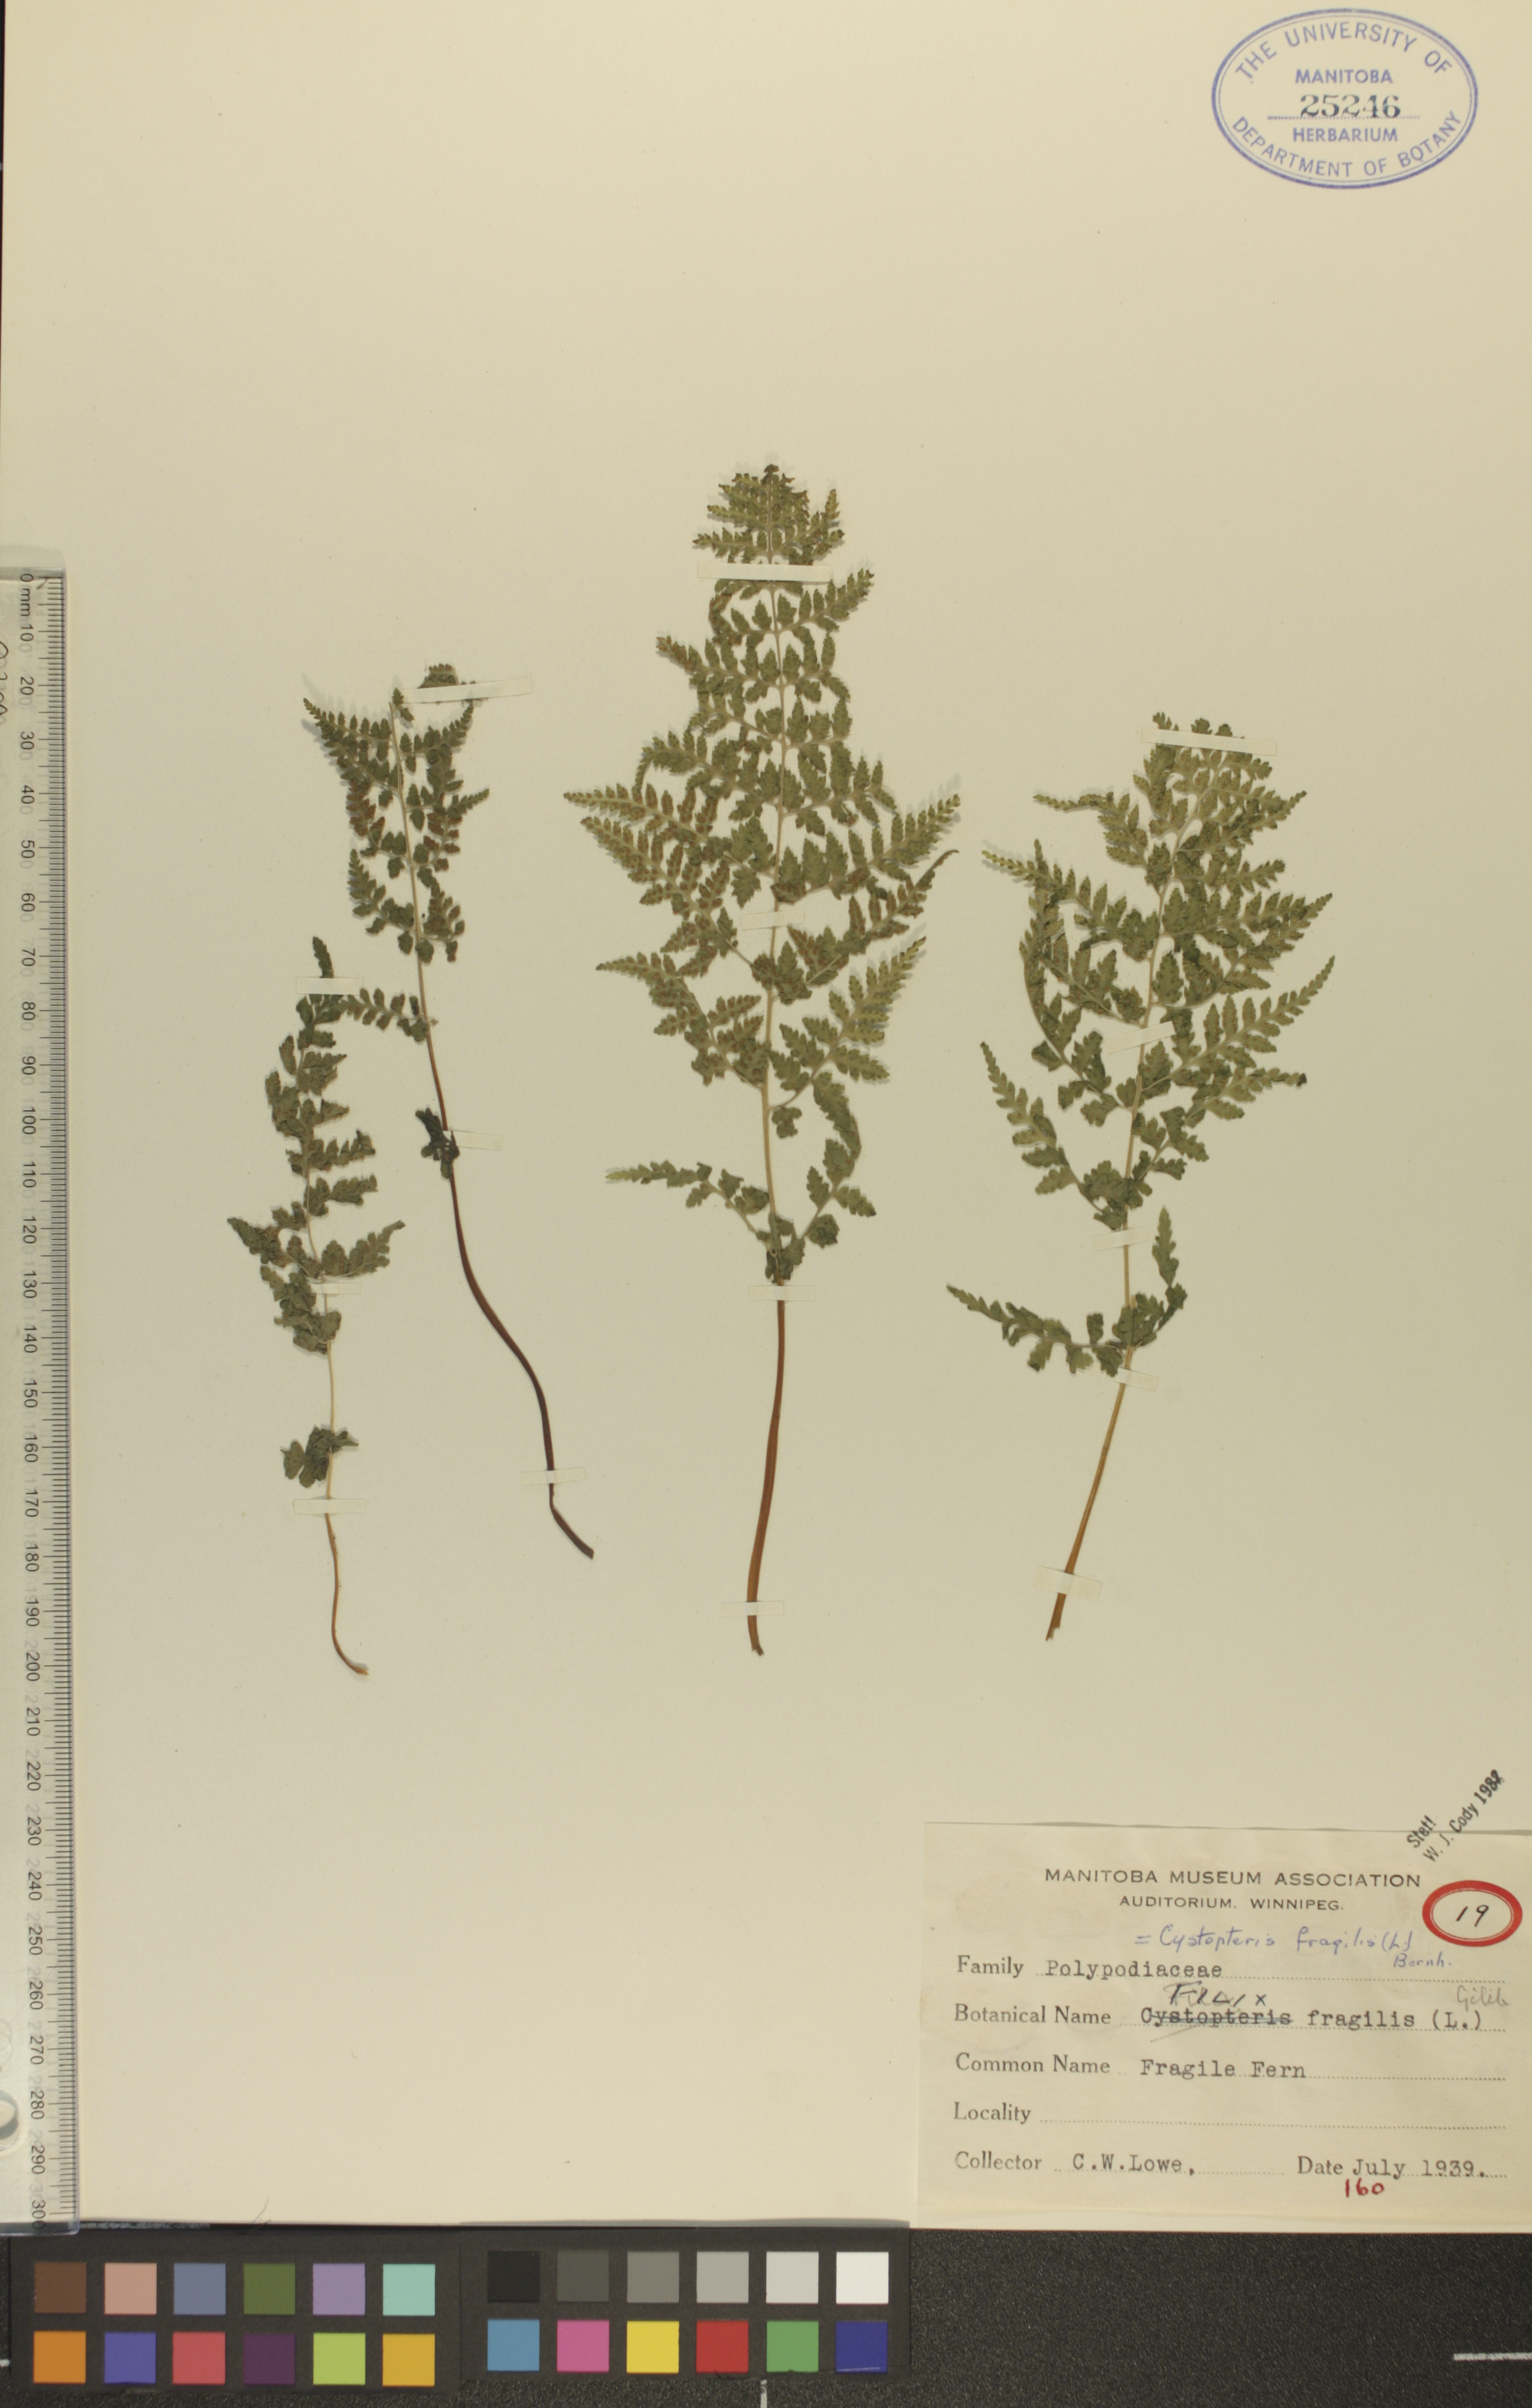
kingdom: Plantae
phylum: Tracheophyta
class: Polypodiopsida
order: Polypodiales
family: Cystopteridaceae
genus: Cystopteris
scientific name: Cystopteris fragilis
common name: Brittle bladder fern
